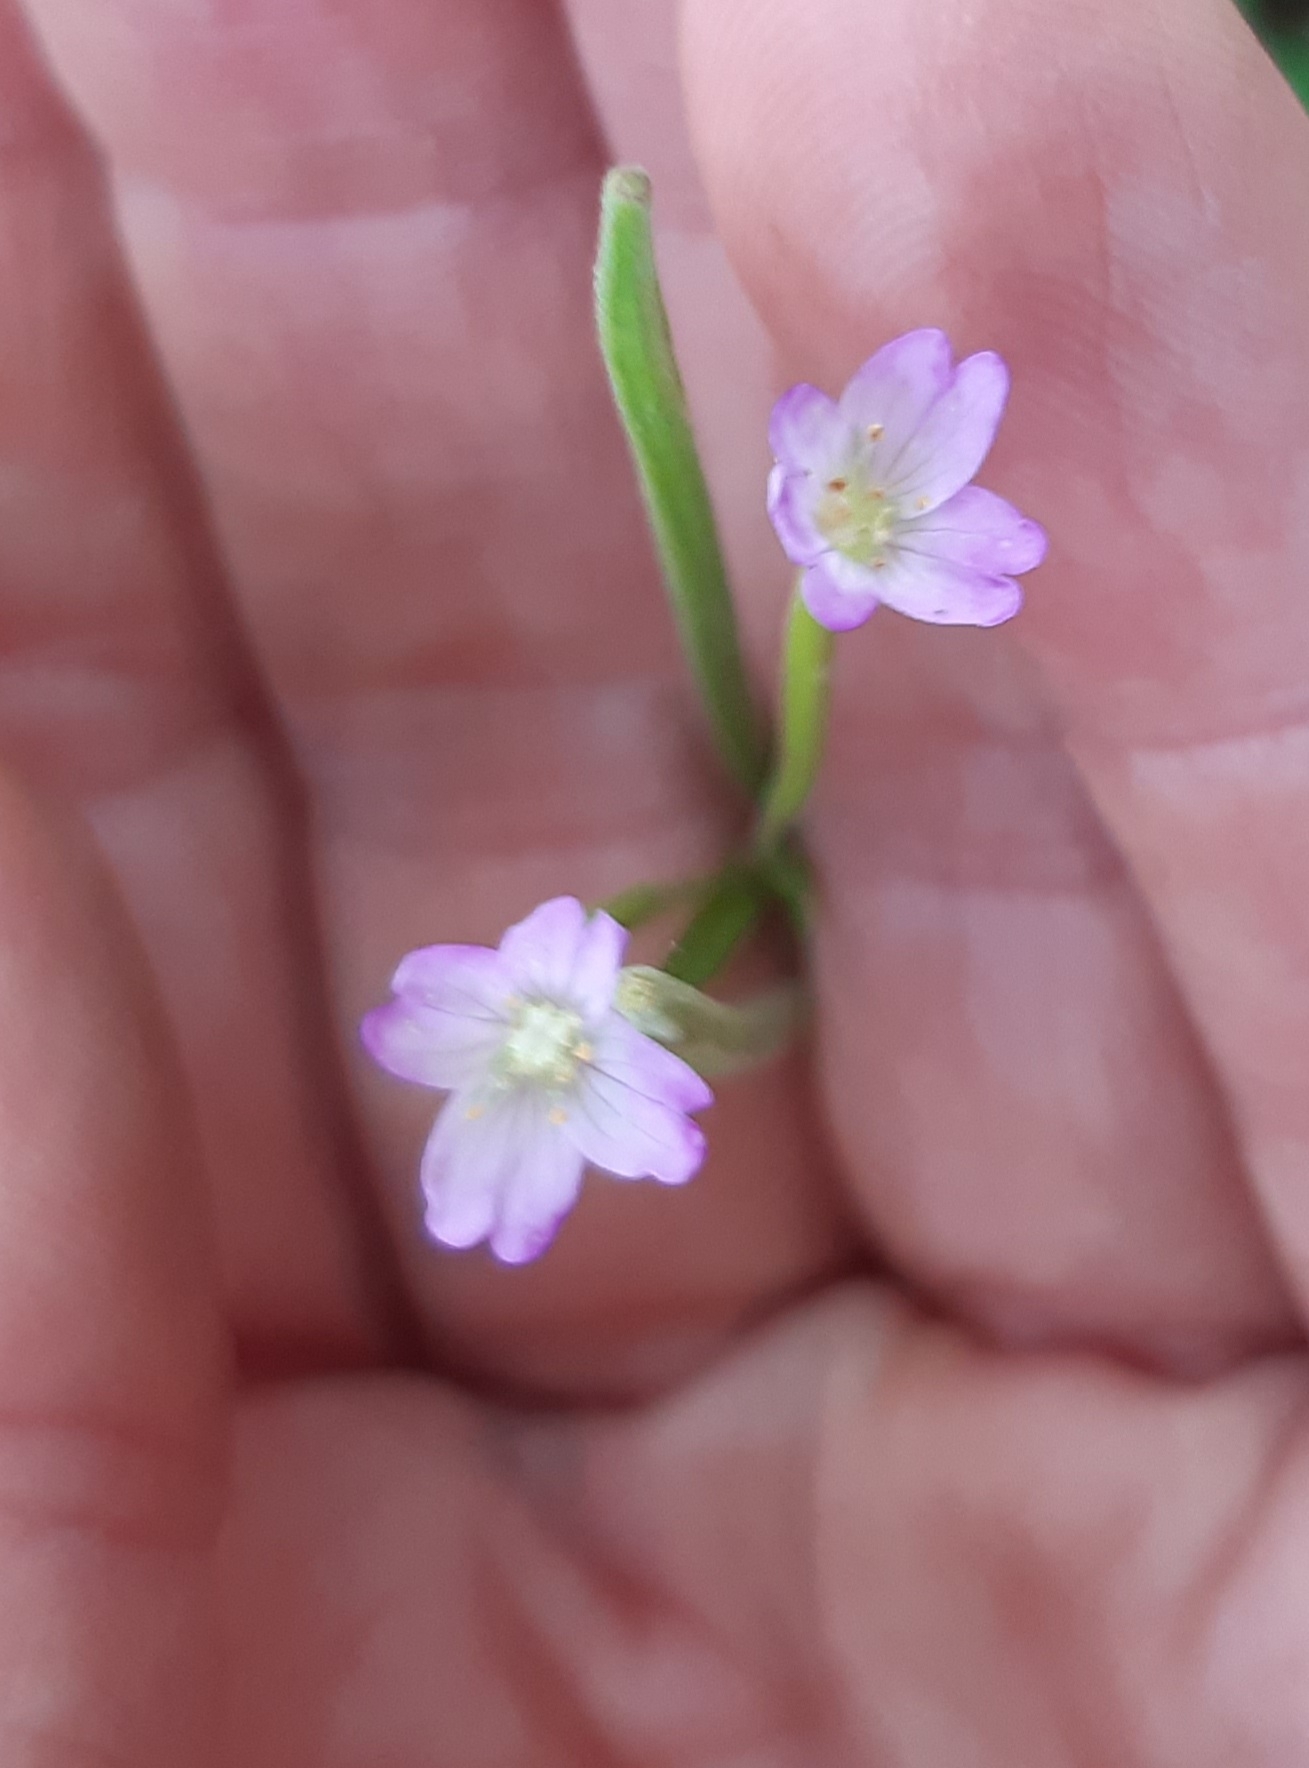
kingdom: Plantae
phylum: Tracheophyta
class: Magnoliopsida
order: Myrtales
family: Onagraceae
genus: Epilobium
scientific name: Epilobium
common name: Dueurtslægten
